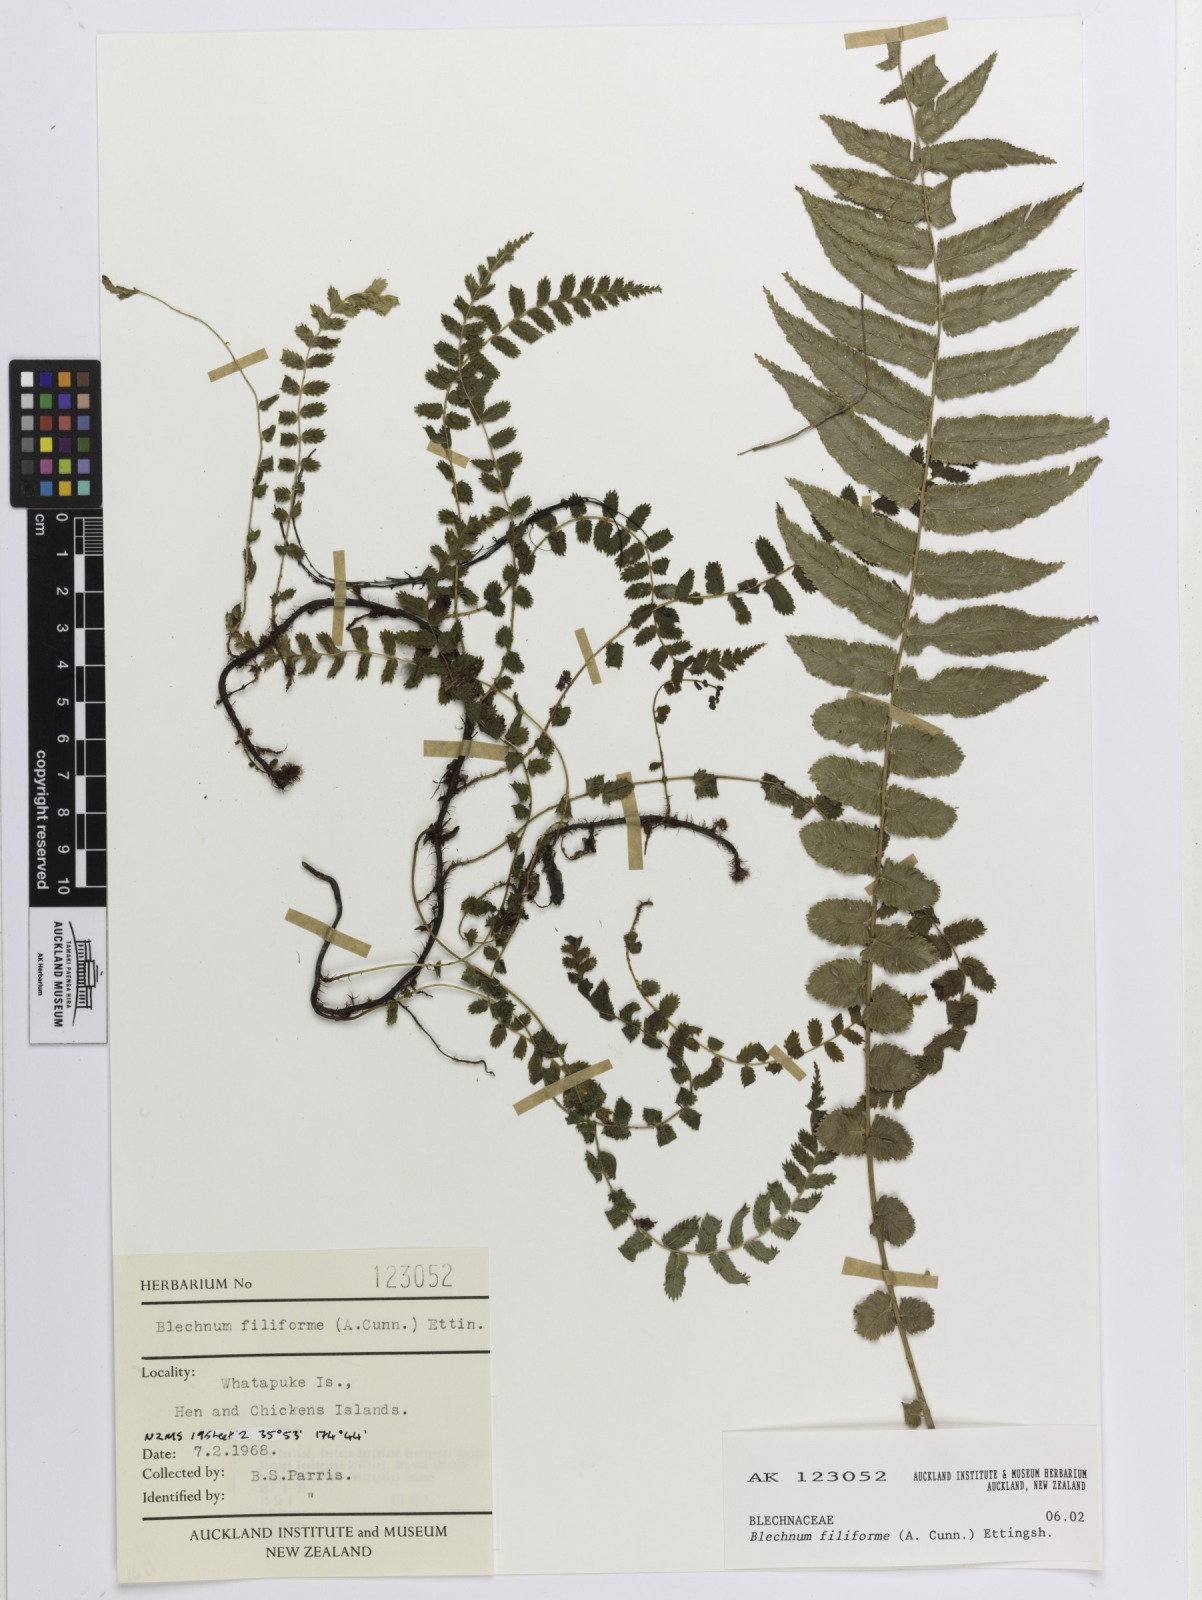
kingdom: Plantae
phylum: Tracheophyta
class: Polypodiopsida
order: Polypodiales
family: Blechnaceae
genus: Icarus
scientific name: Icarus filiformis
